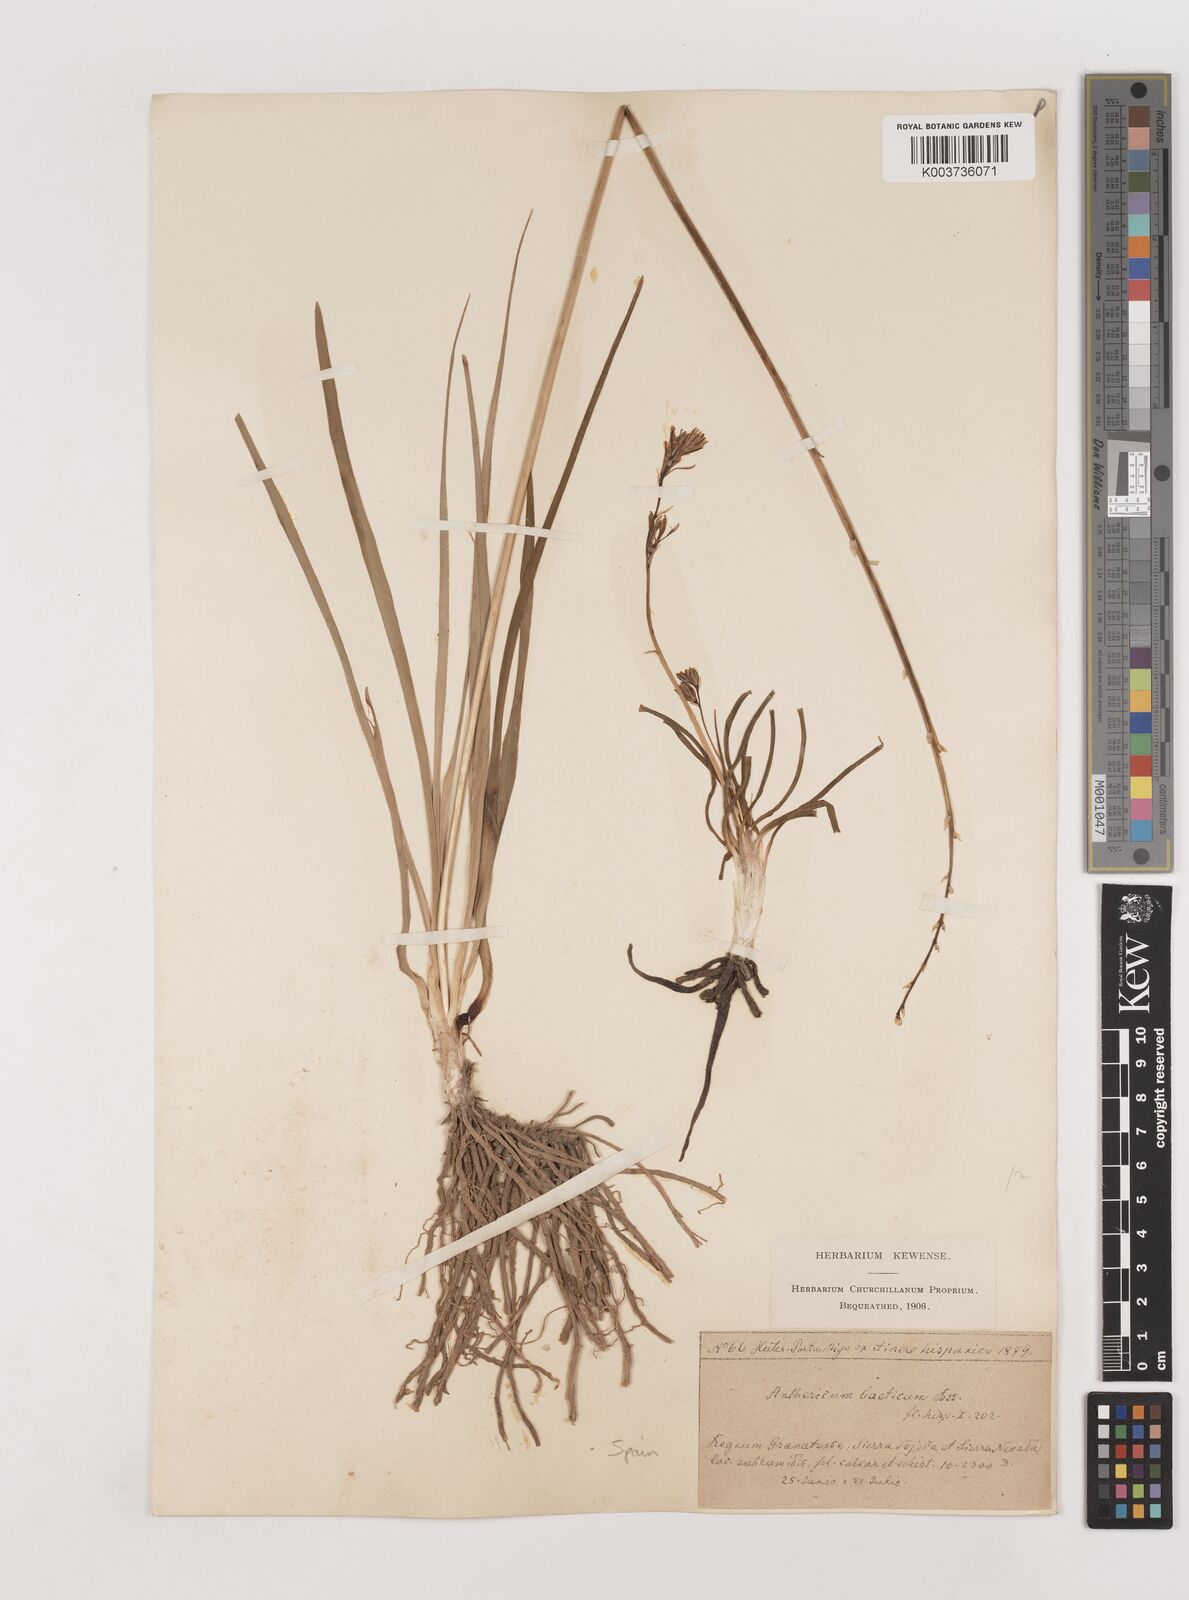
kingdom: Plantae
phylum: Tracheophyta
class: Liliopsida
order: Asparagales
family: Asparagaceae
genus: Anthericum
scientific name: Anthericum liliago
